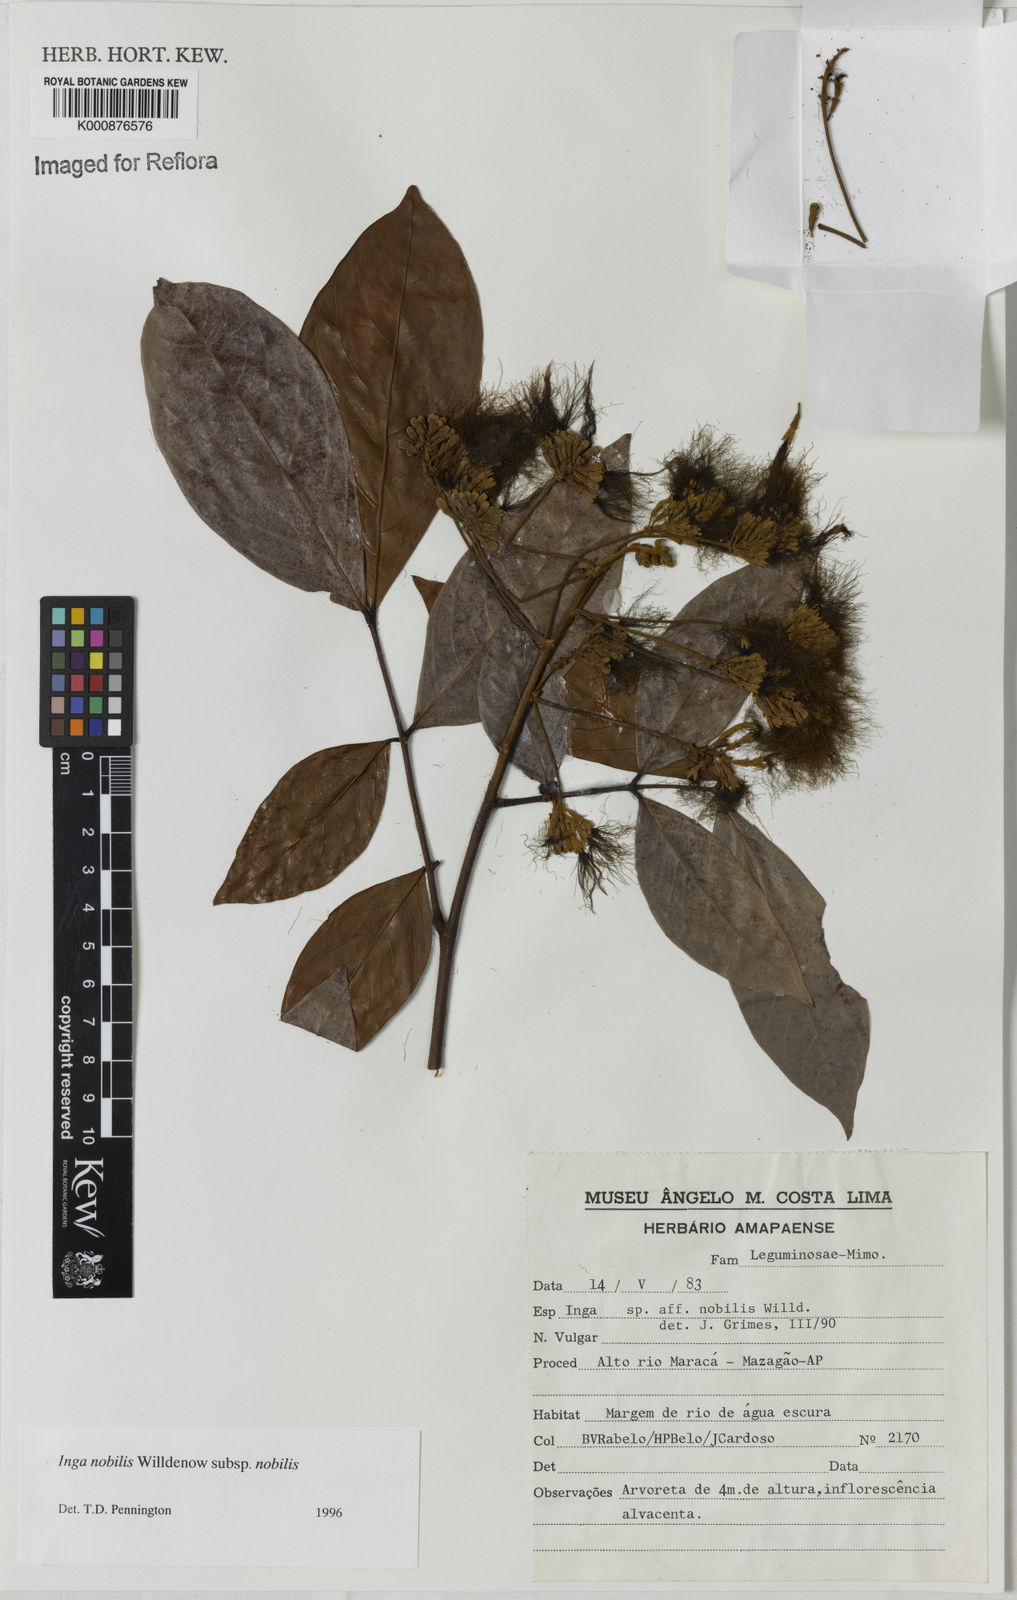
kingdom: Plantae
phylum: Tracheophyta
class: Magnoliopsida
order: Fabales
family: Fabaceae
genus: Inga
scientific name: Inga nobilis
